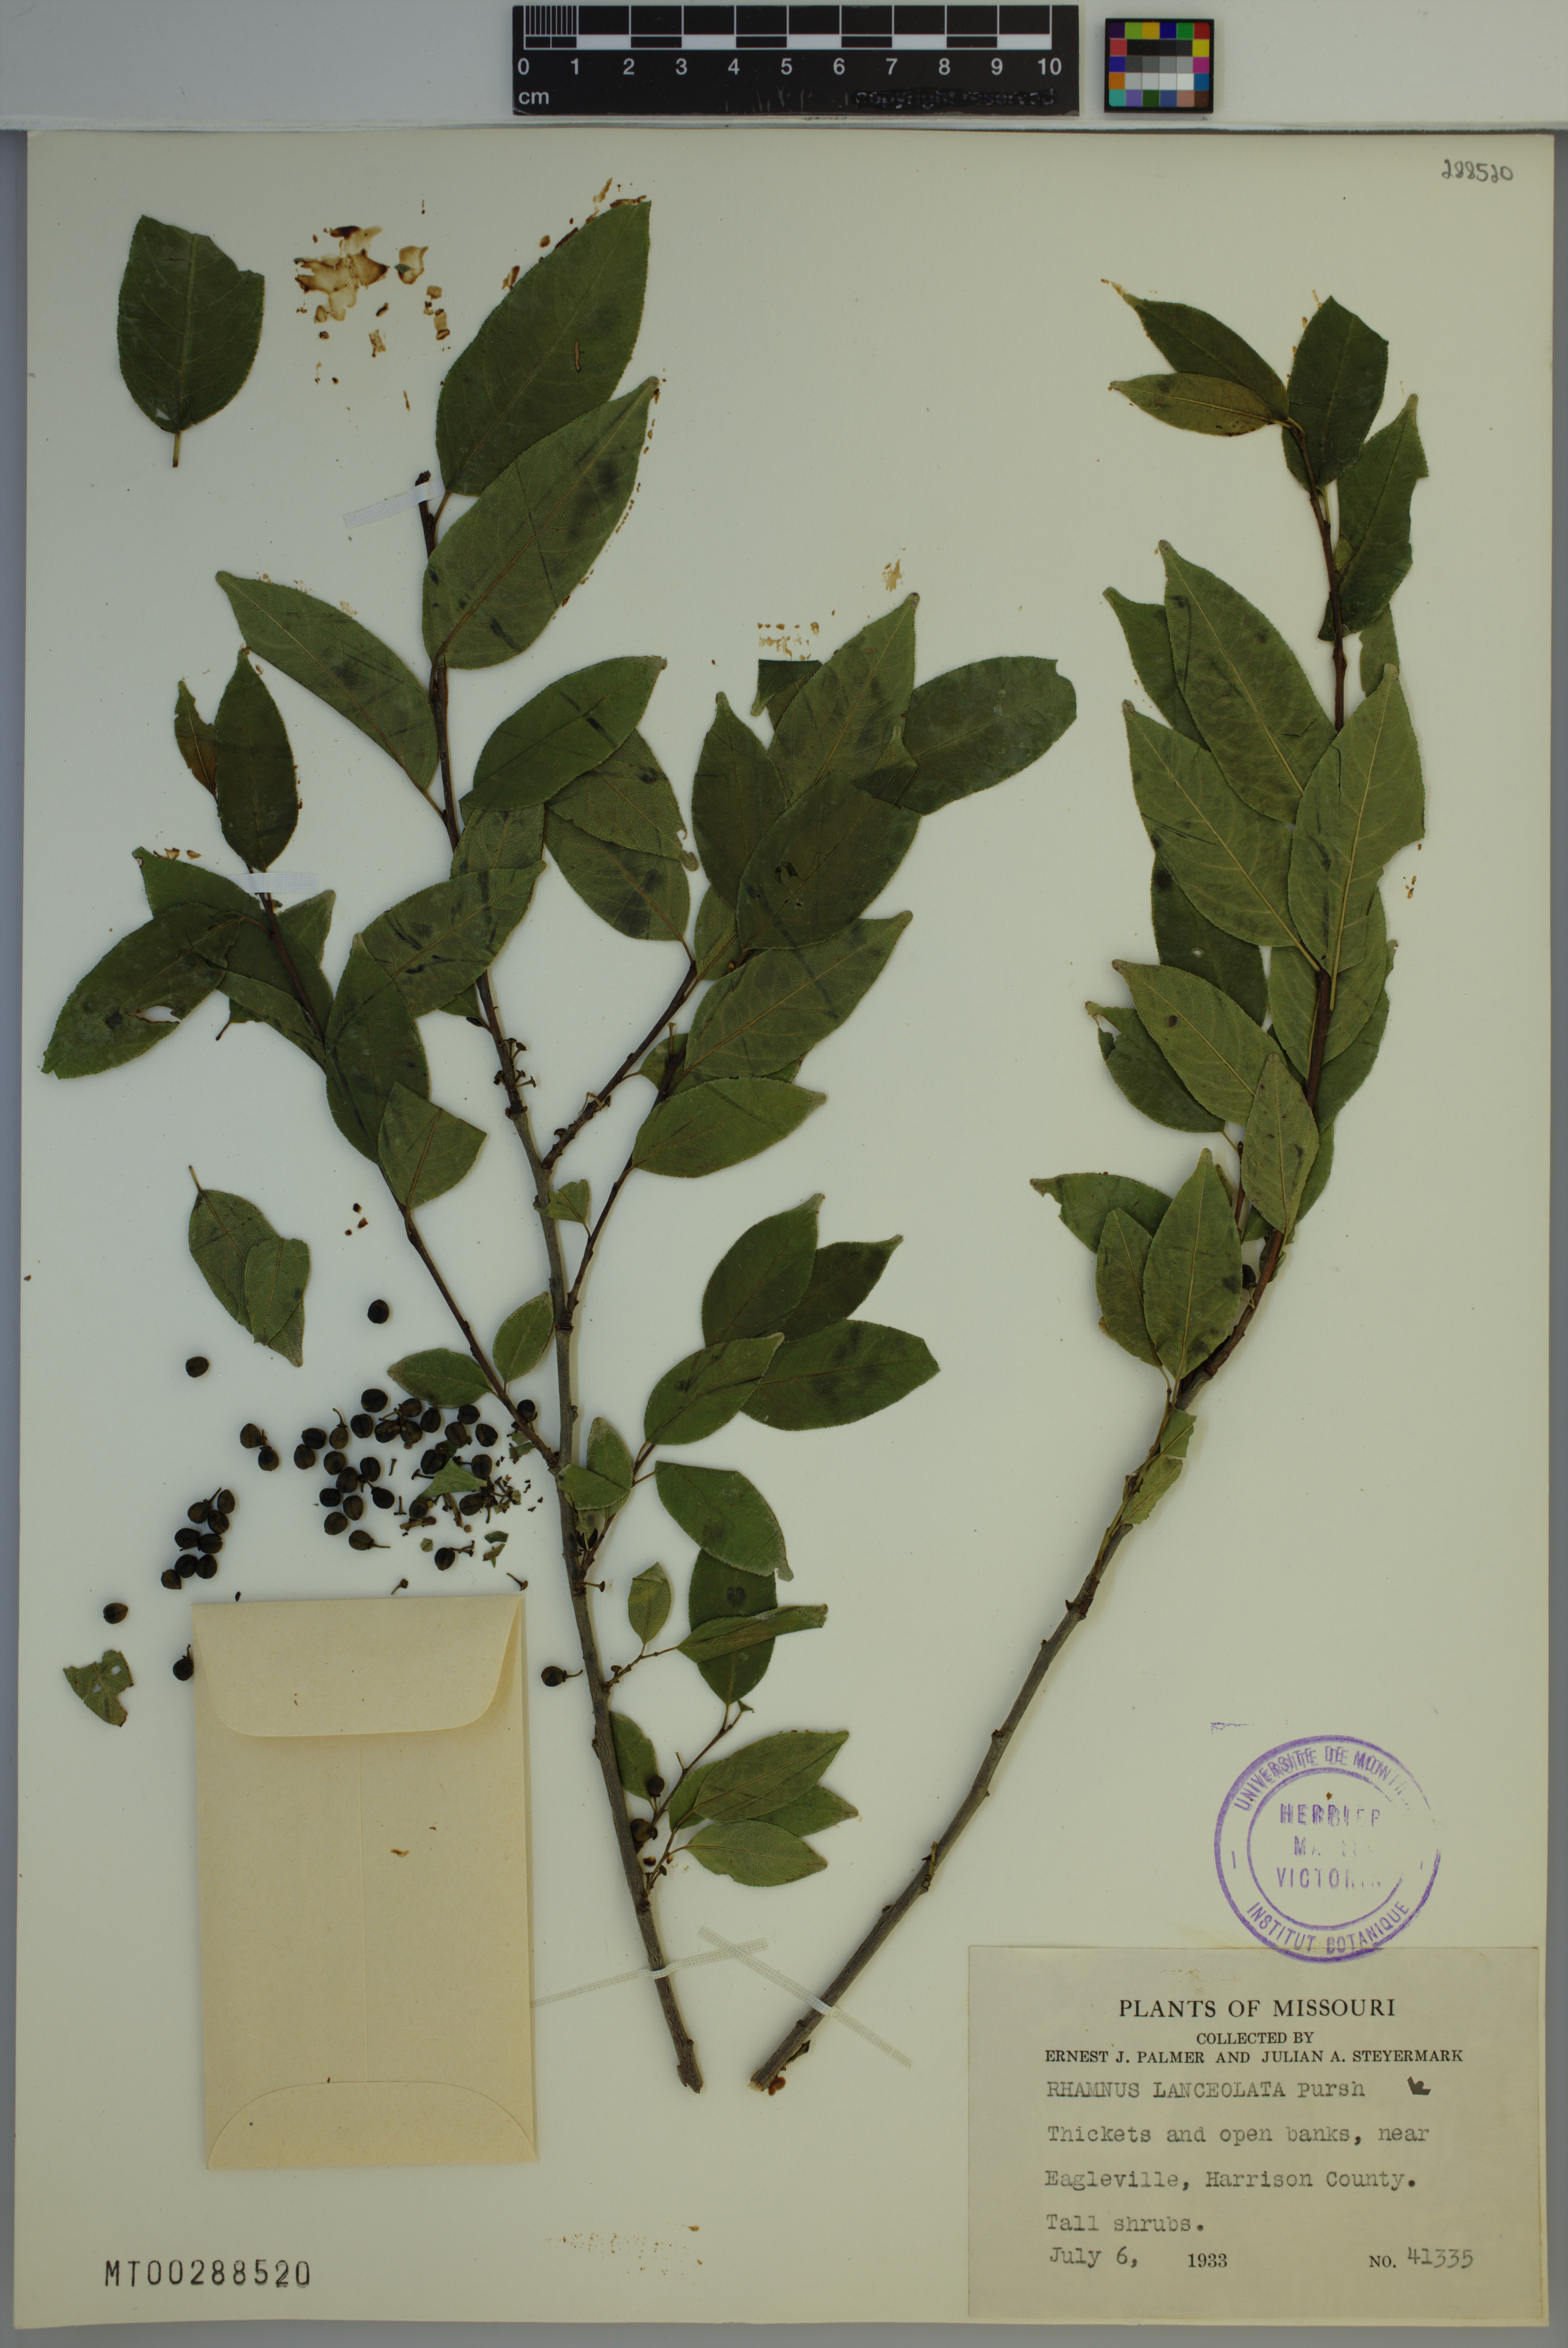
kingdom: Plantae
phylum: Tracheophyta
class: Magnoliopsida
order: Rosales
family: Rhamnaceae
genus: Endotropis
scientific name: Endotropis lanceolata
